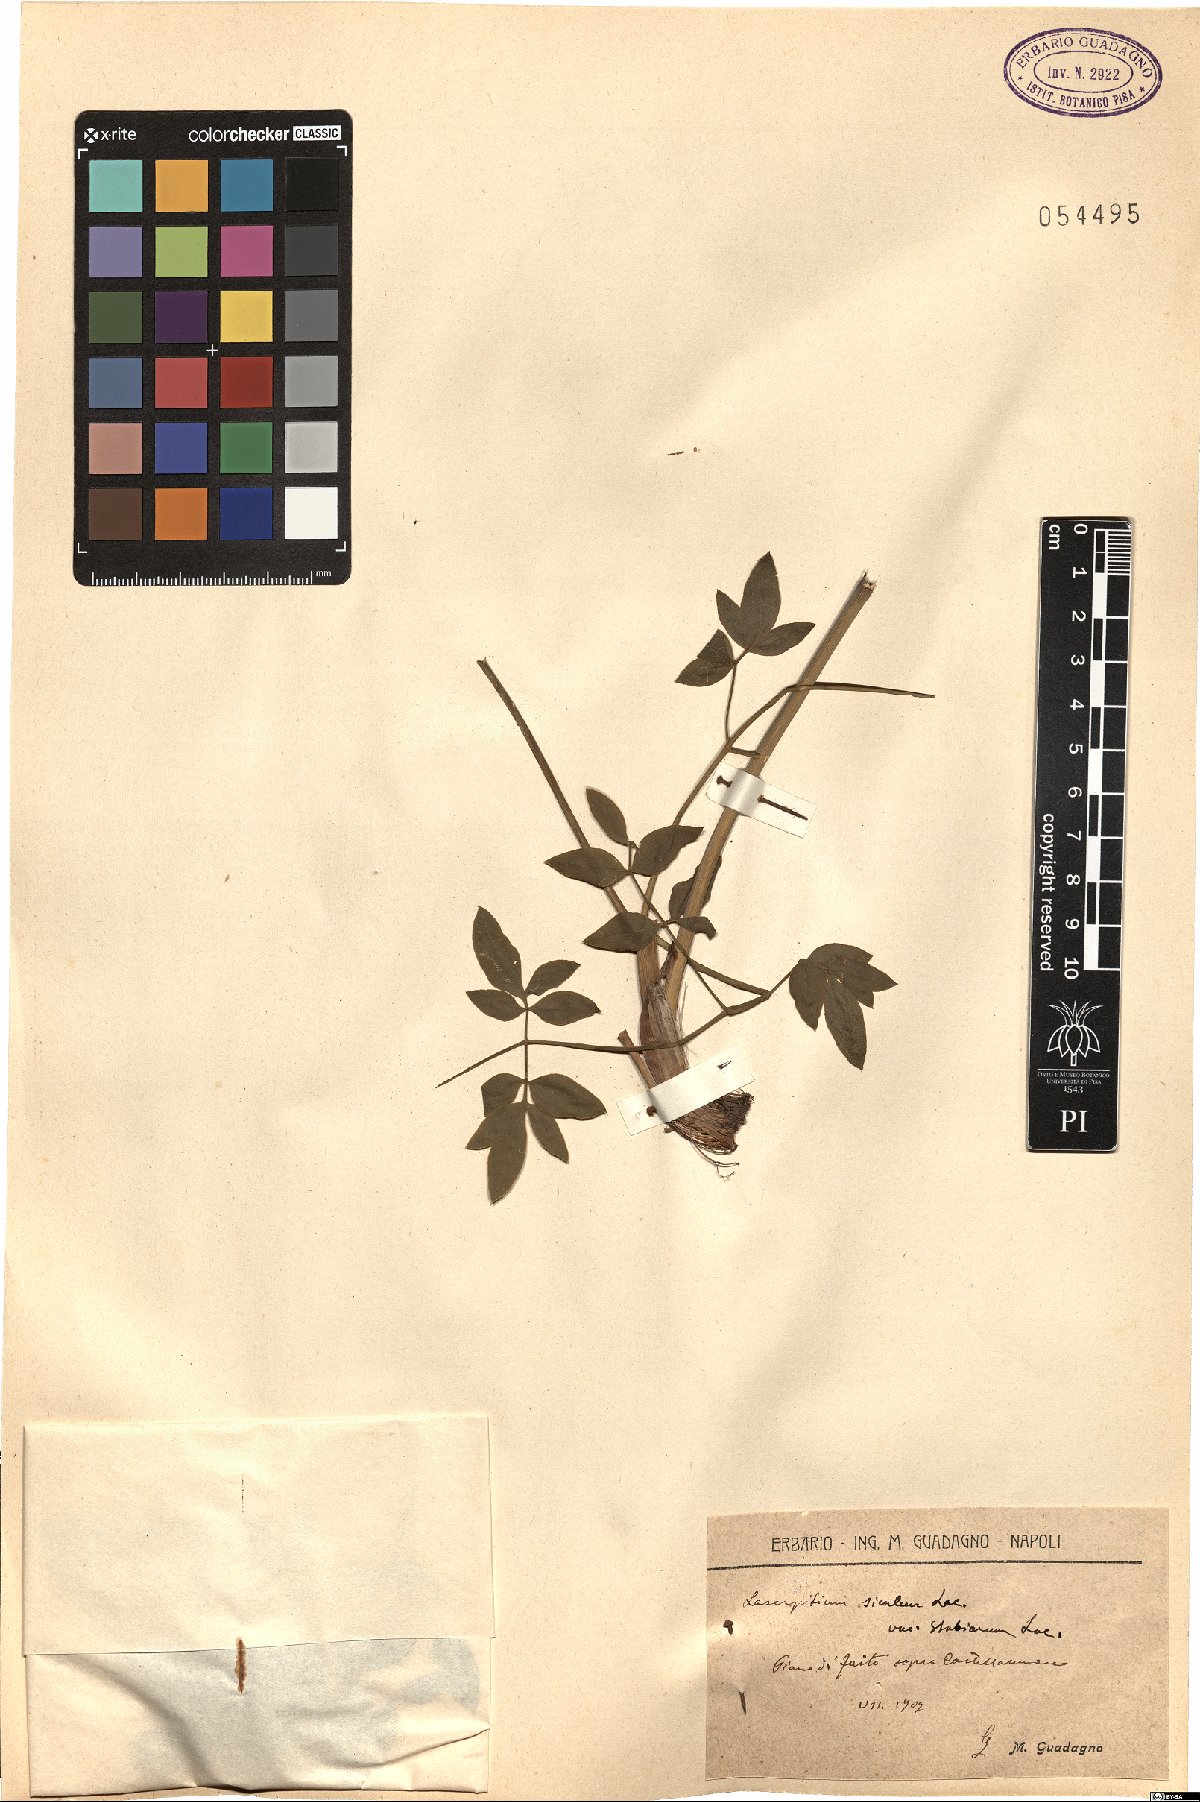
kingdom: Plantae
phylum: Tracheophyta
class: Magnoliopsida
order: Apiales
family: Apiaceae
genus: Siler
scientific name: Siler montanum
